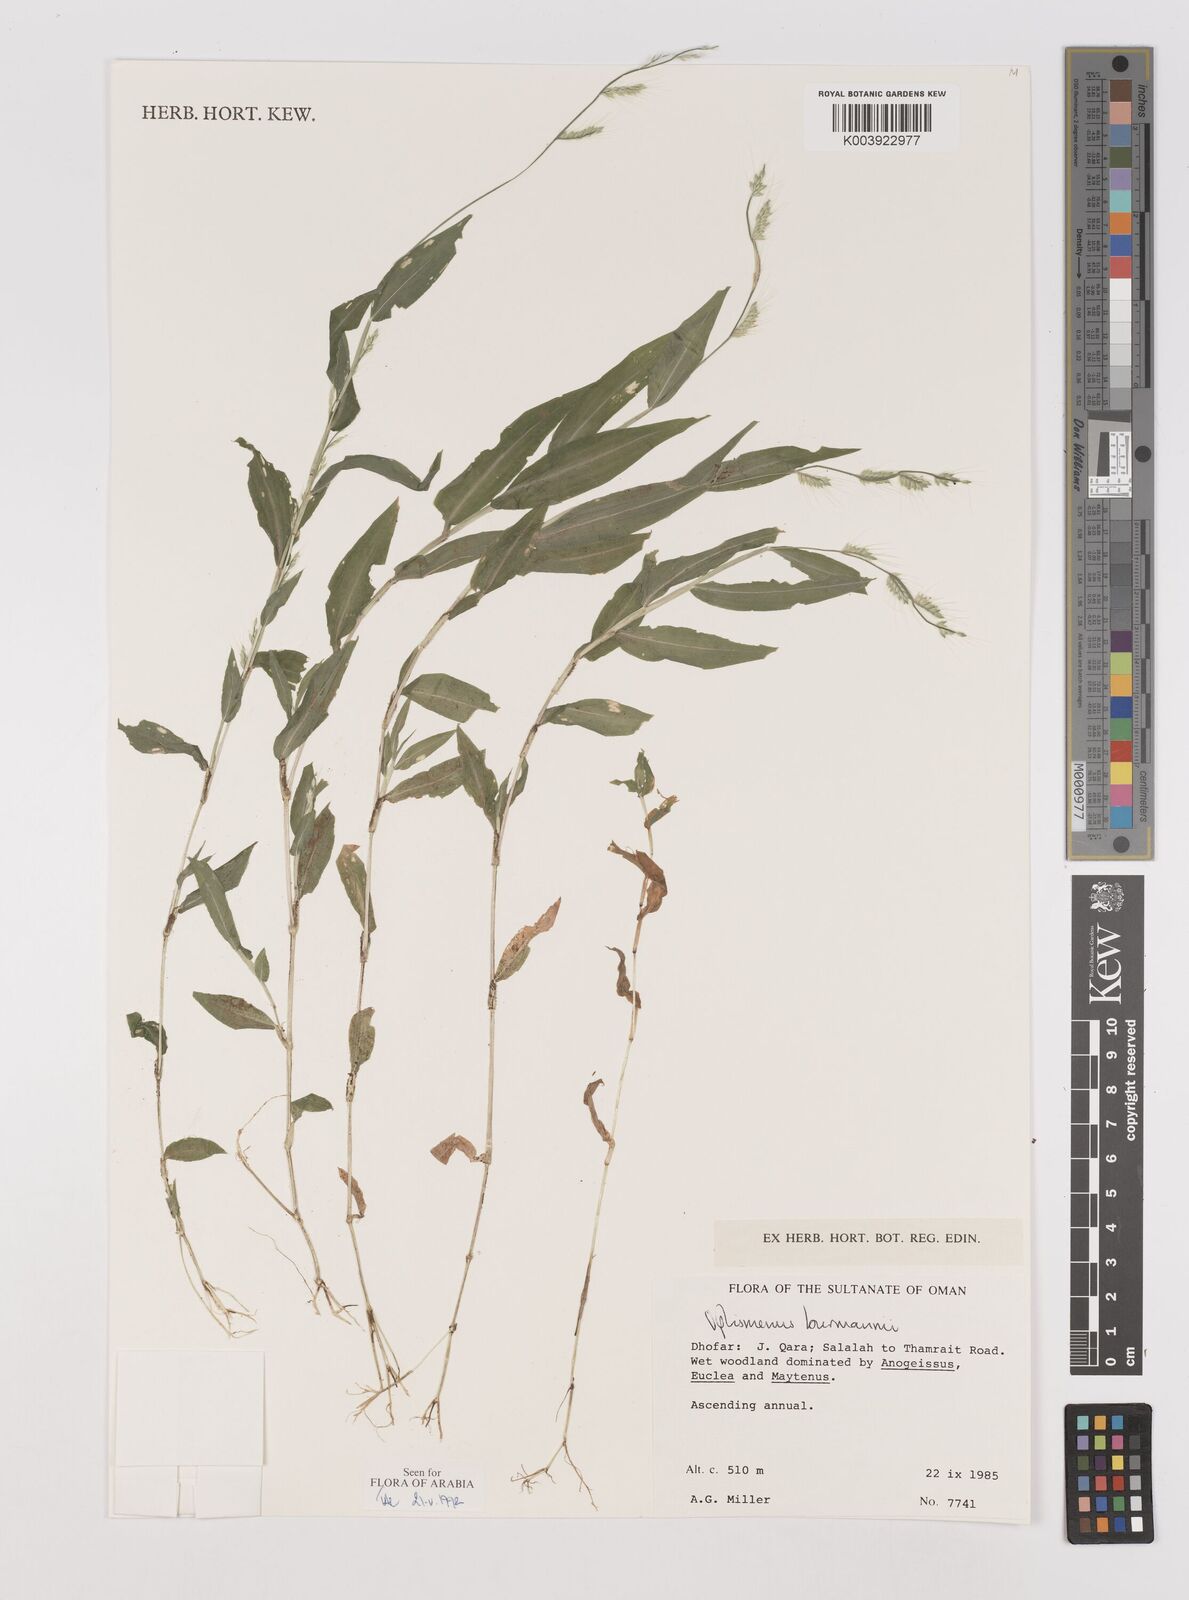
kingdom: Plantae
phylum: Tracheophyta
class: Liliopsida
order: Poales
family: Poaceae
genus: Oplismenus
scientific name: Oplismenus burmanni
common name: Burmann's basketgrass
